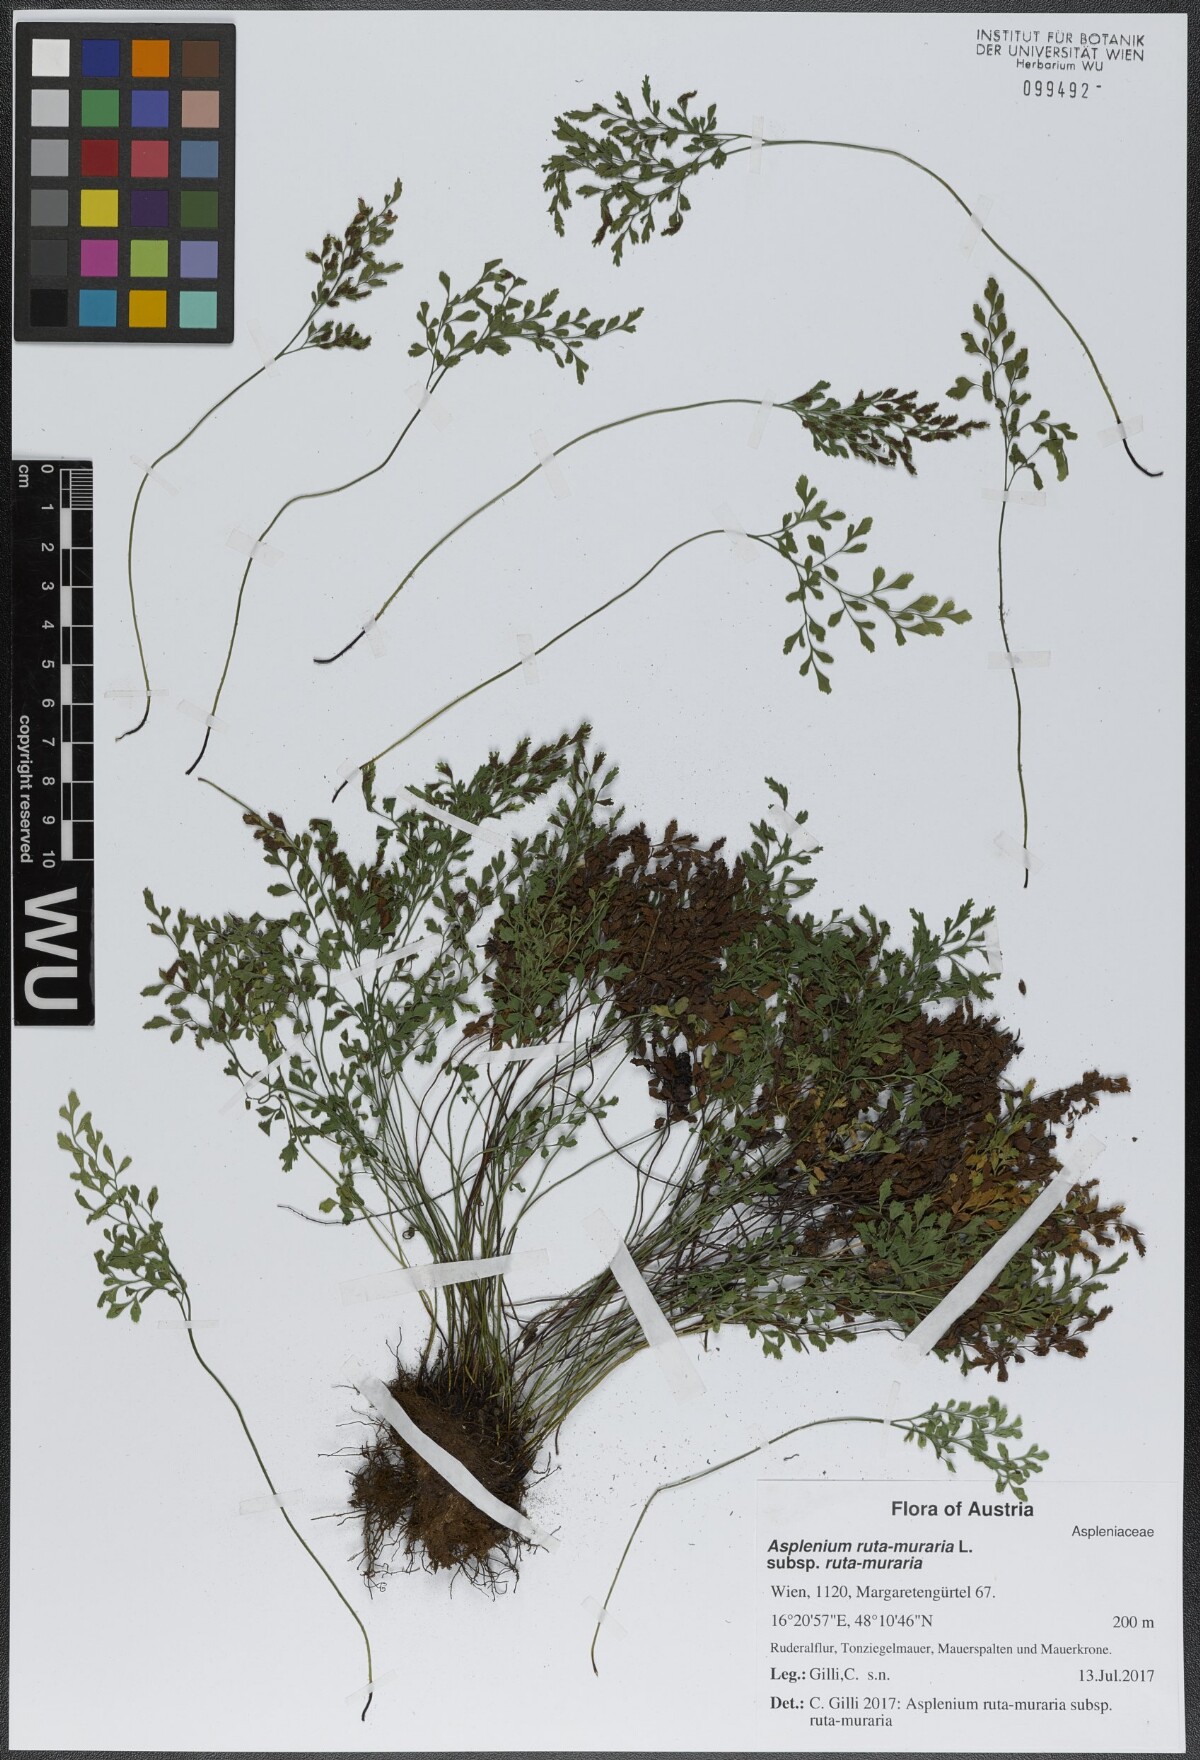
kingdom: Plantae
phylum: Tracheophyta
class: Polypodiopsida
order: Polypodiales
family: Aspleniaceae
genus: Asplenium
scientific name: Asplenium ruta-muraria
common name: Wall-rue
